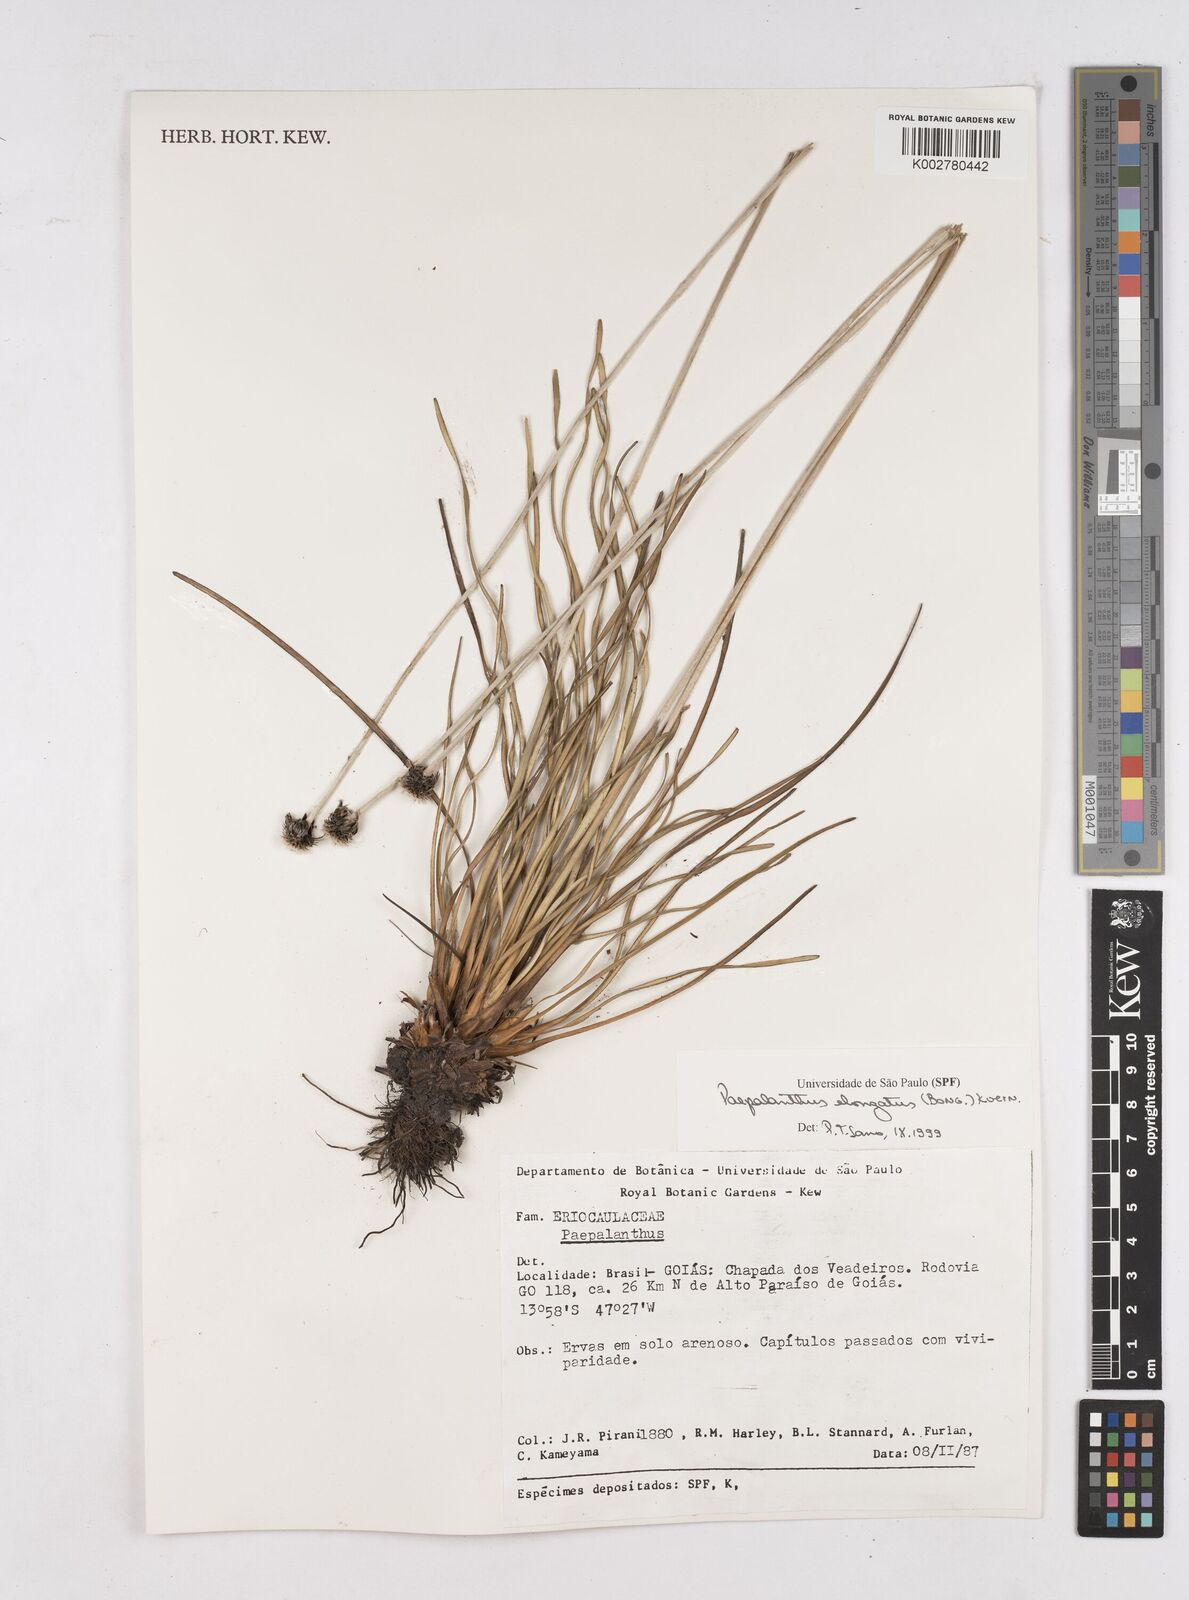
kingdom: Plantae
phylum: Tracheophyta
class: Liliopsida
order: Poales
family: Eriocaulaceae
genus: Paepalanthus
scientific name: Paepalanthus elongatus
